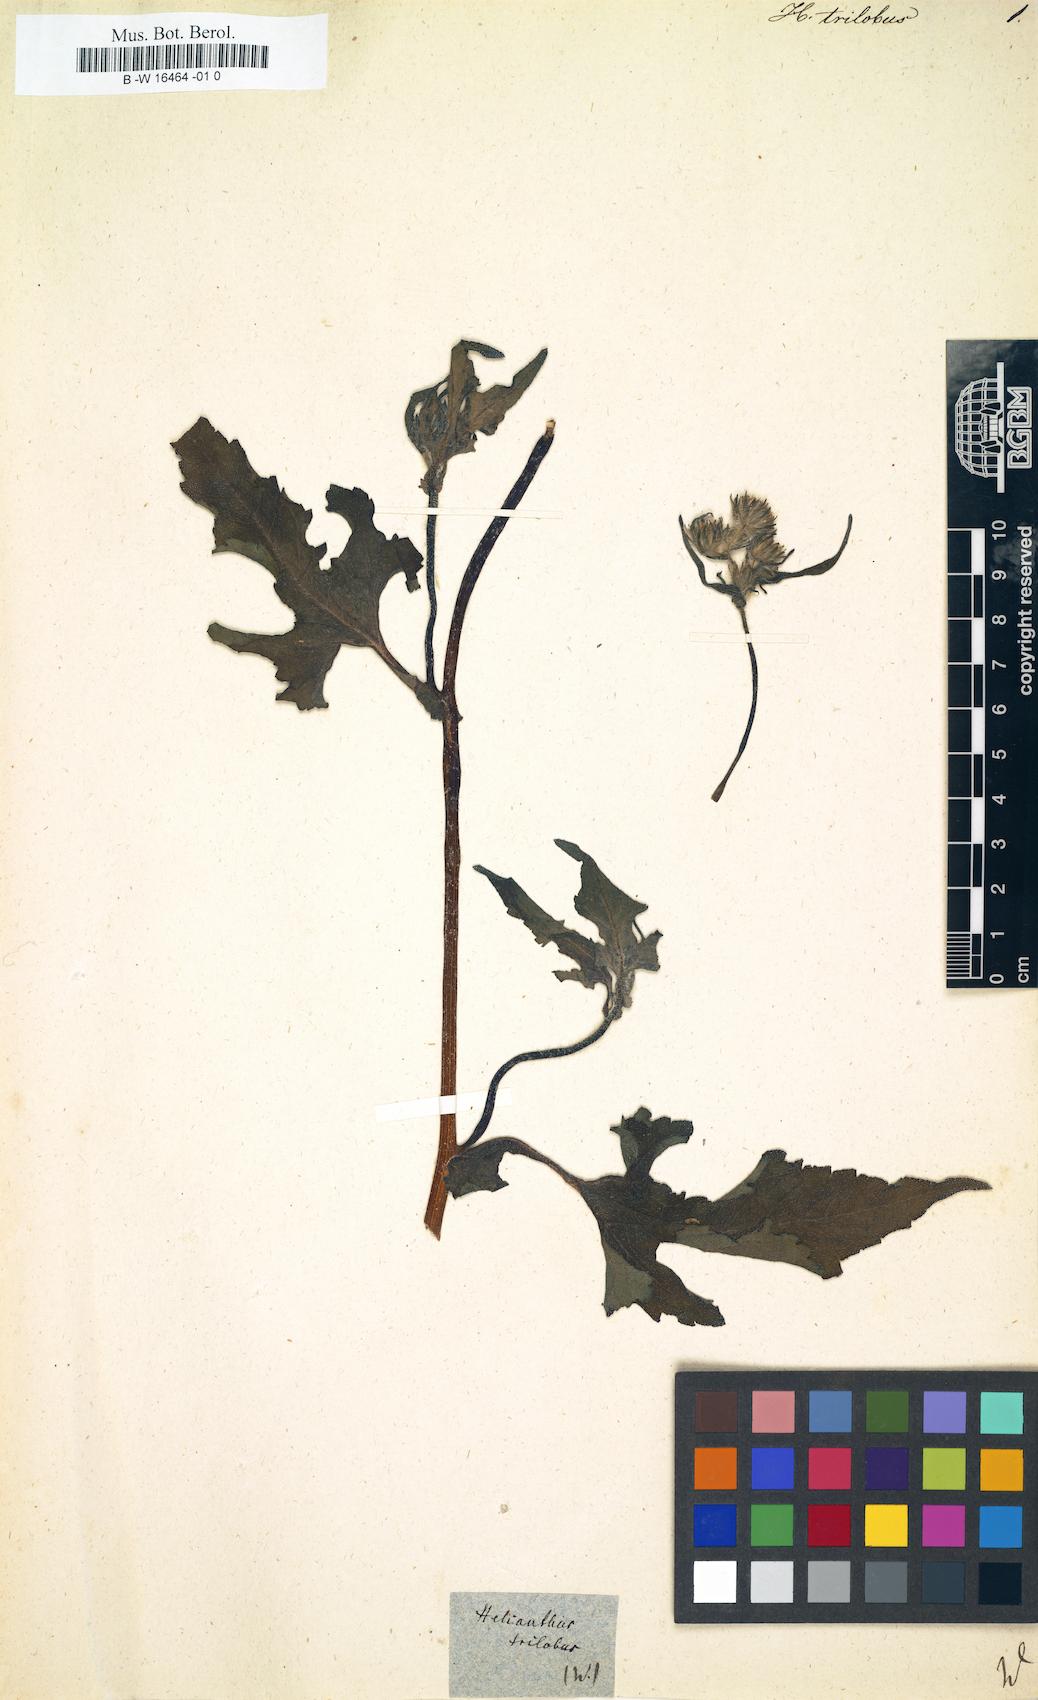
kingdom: Plantae
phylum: Tracheophyta
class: Magnoliopsida
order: Asterales
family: Asteraceae
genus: Helianthus
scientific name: Helianthus trilobatus
